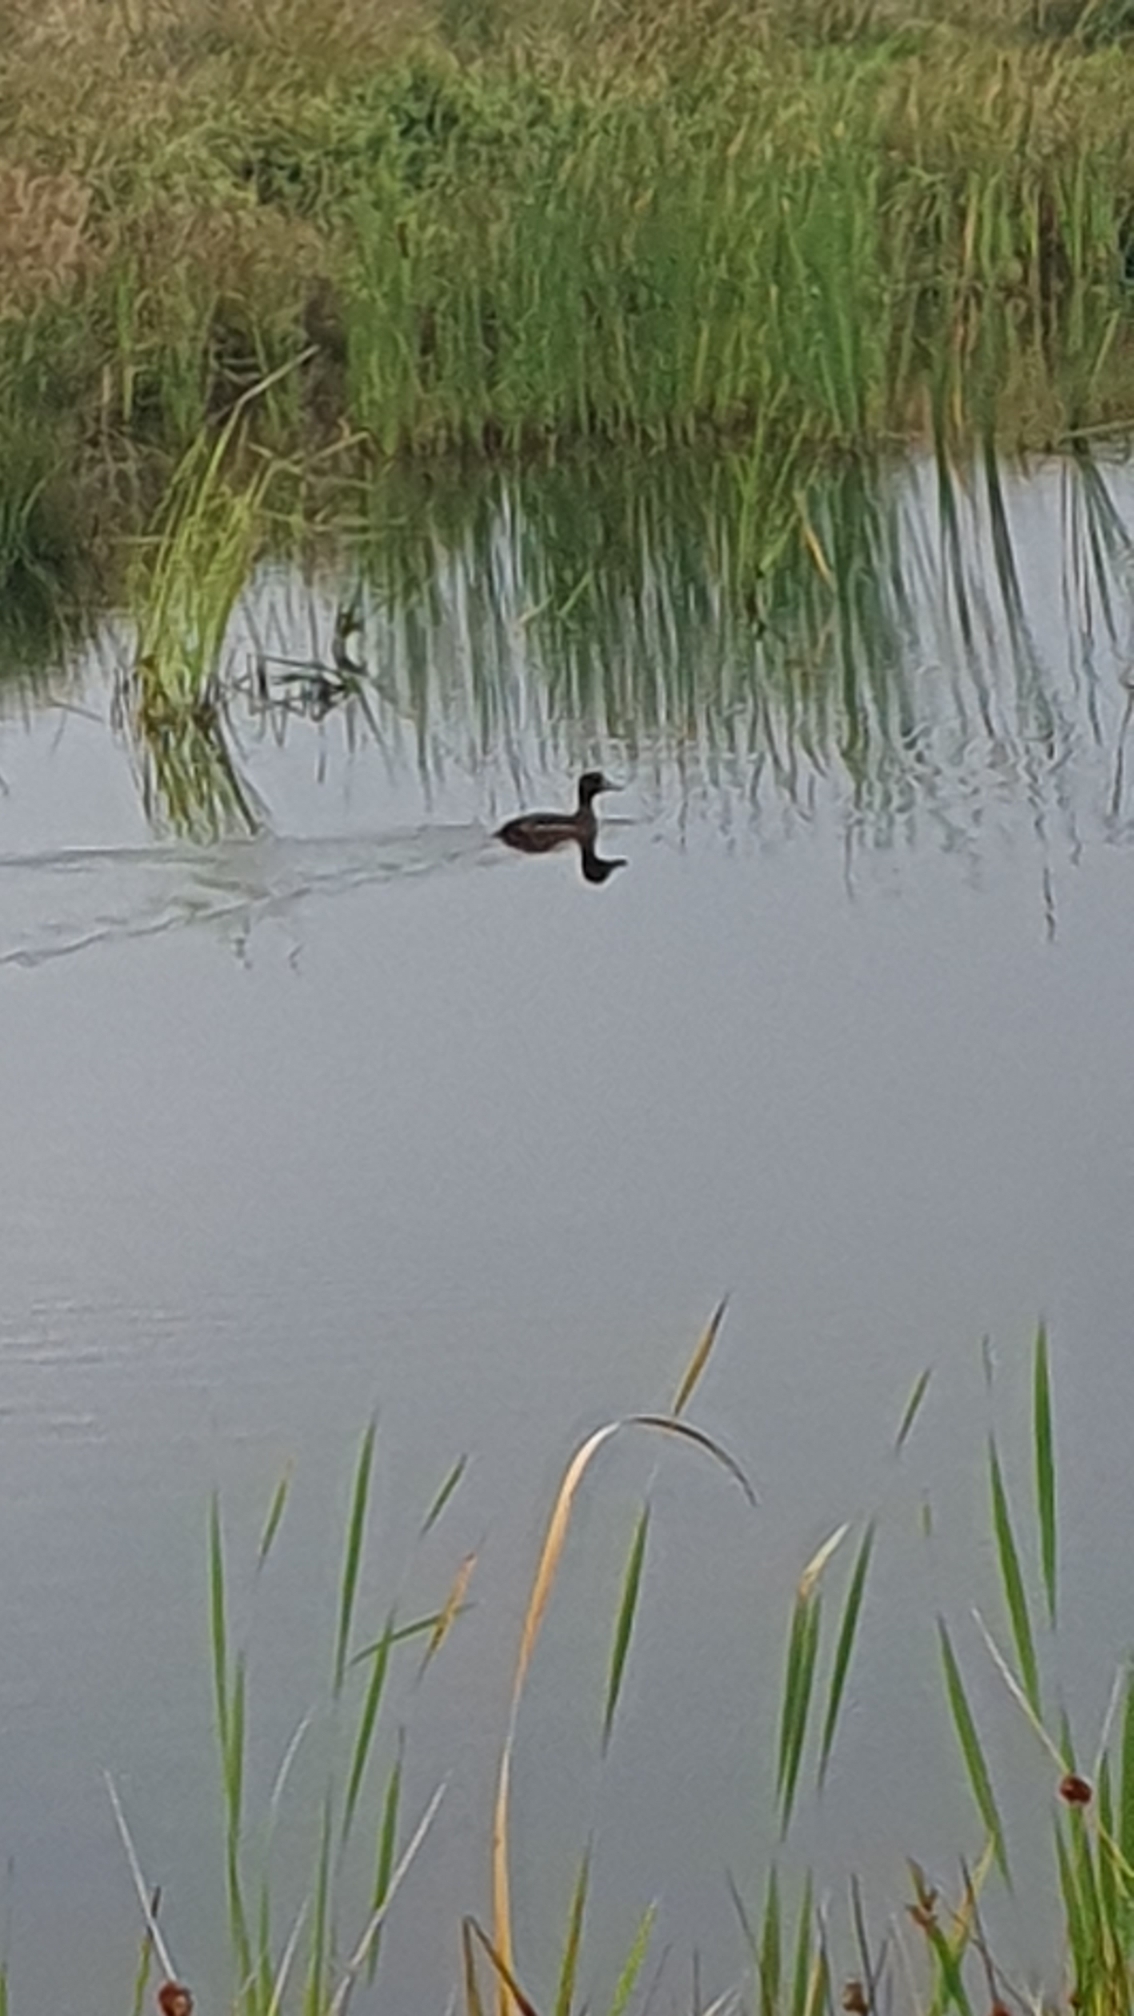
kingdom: Animalia
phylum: Chordata
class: Aves
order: Anseriformes
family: Anatidae
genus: Aythya
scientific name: Aythya fuligula
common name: Troldand
